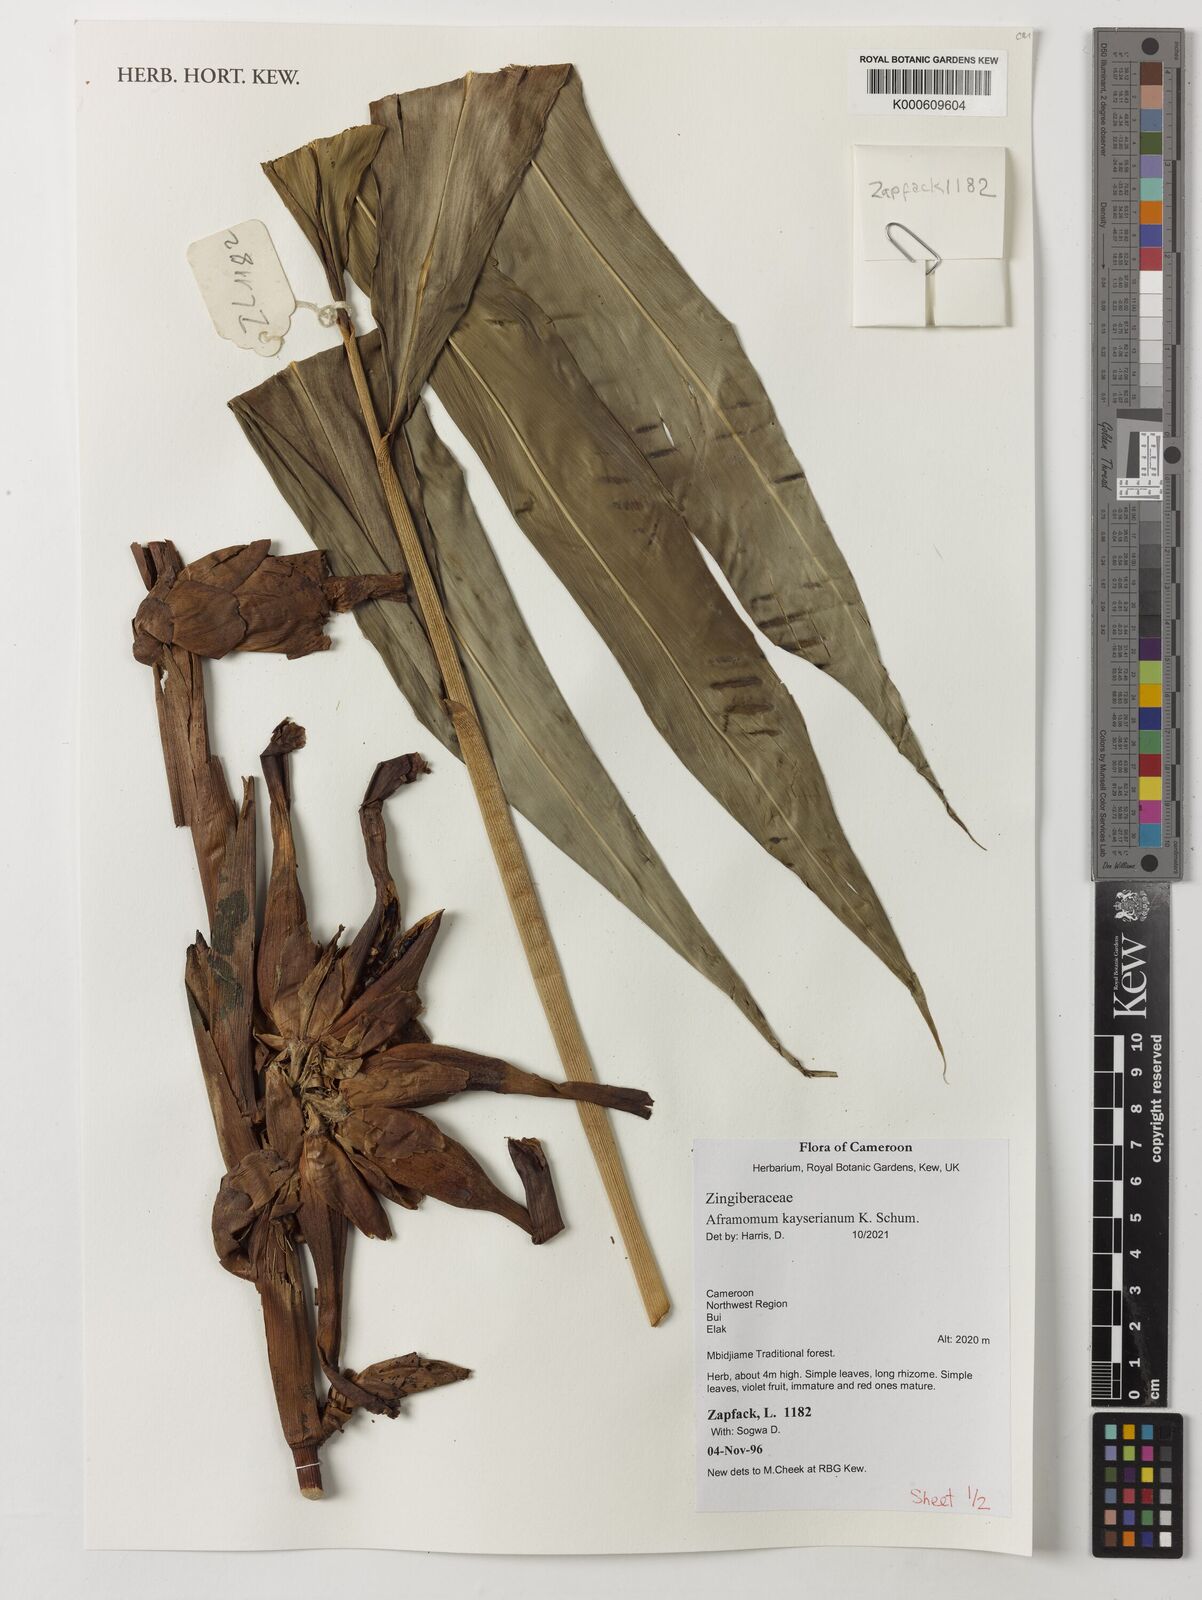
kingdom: Plantae
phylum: Tracheophyta
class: Liliopsida
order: Zingiberales
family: Zingiberaceae
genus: Aframomum
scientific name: Aframomum kayserianum
